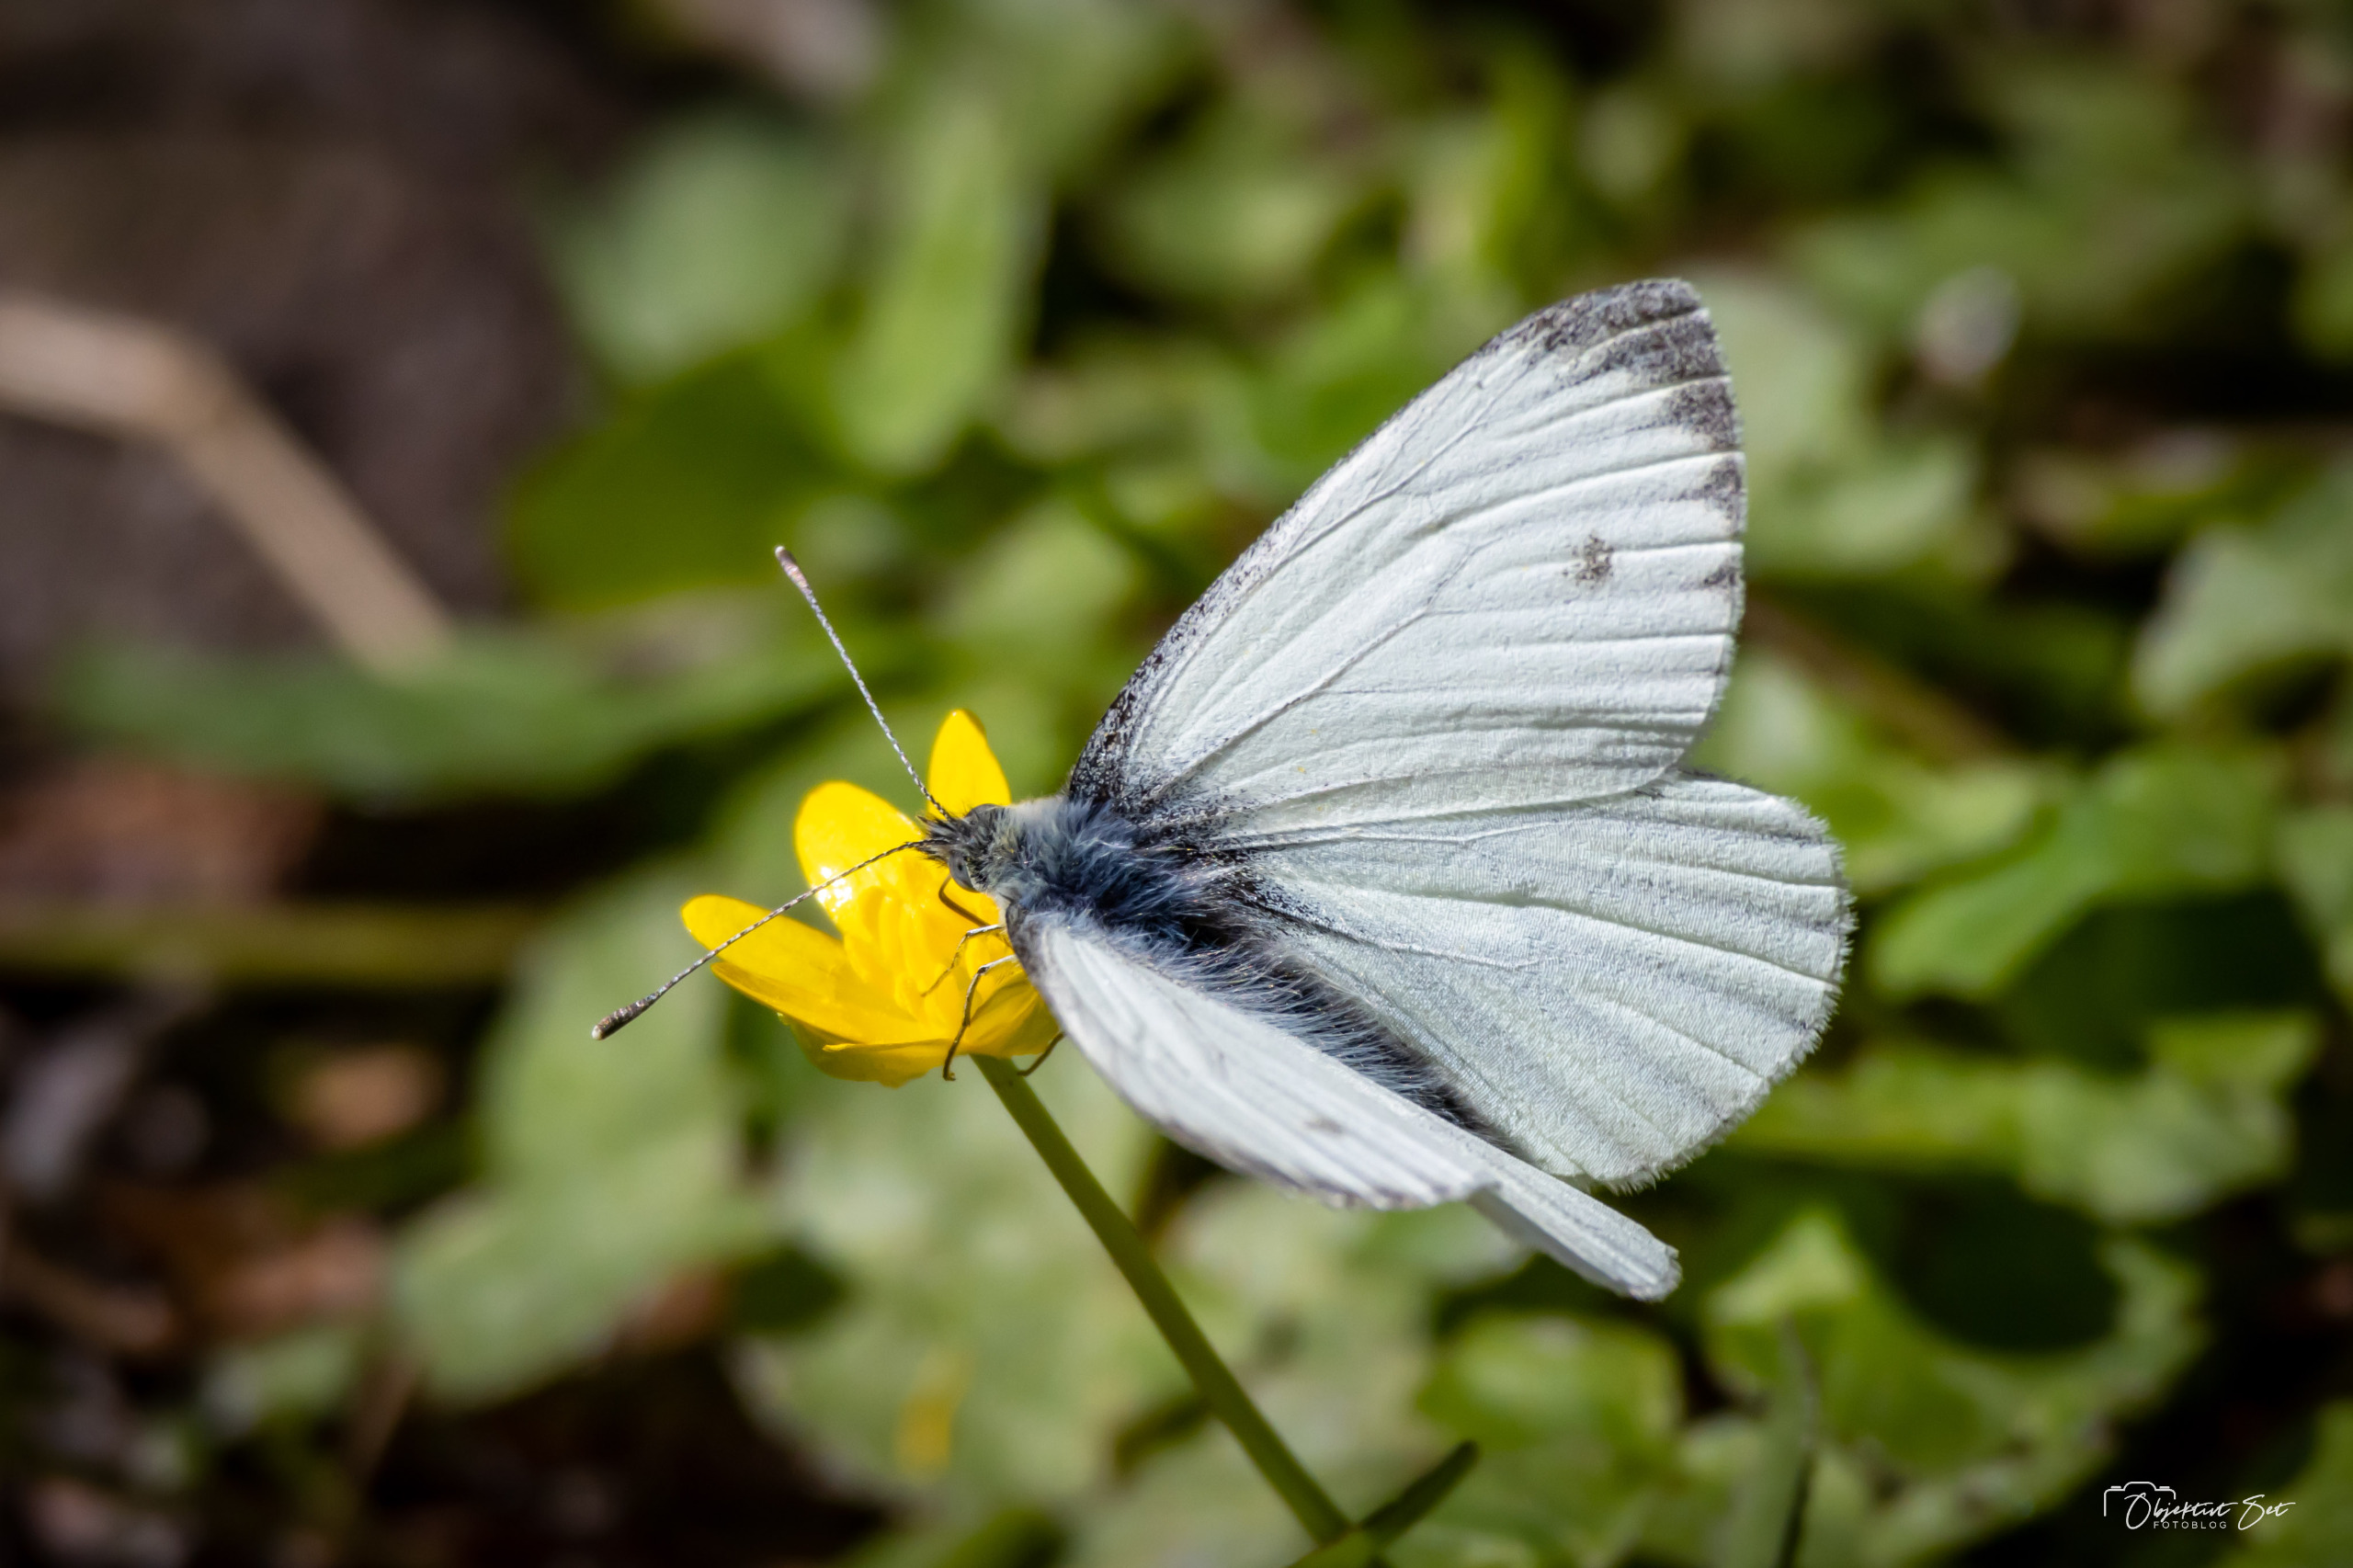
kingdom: Animalia
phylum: Arthropoda
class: Insecta
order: Lepidoptera
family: Pieridae
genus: Pieris
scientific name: Pieris napi
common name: Grønåret kålsommerfugl
